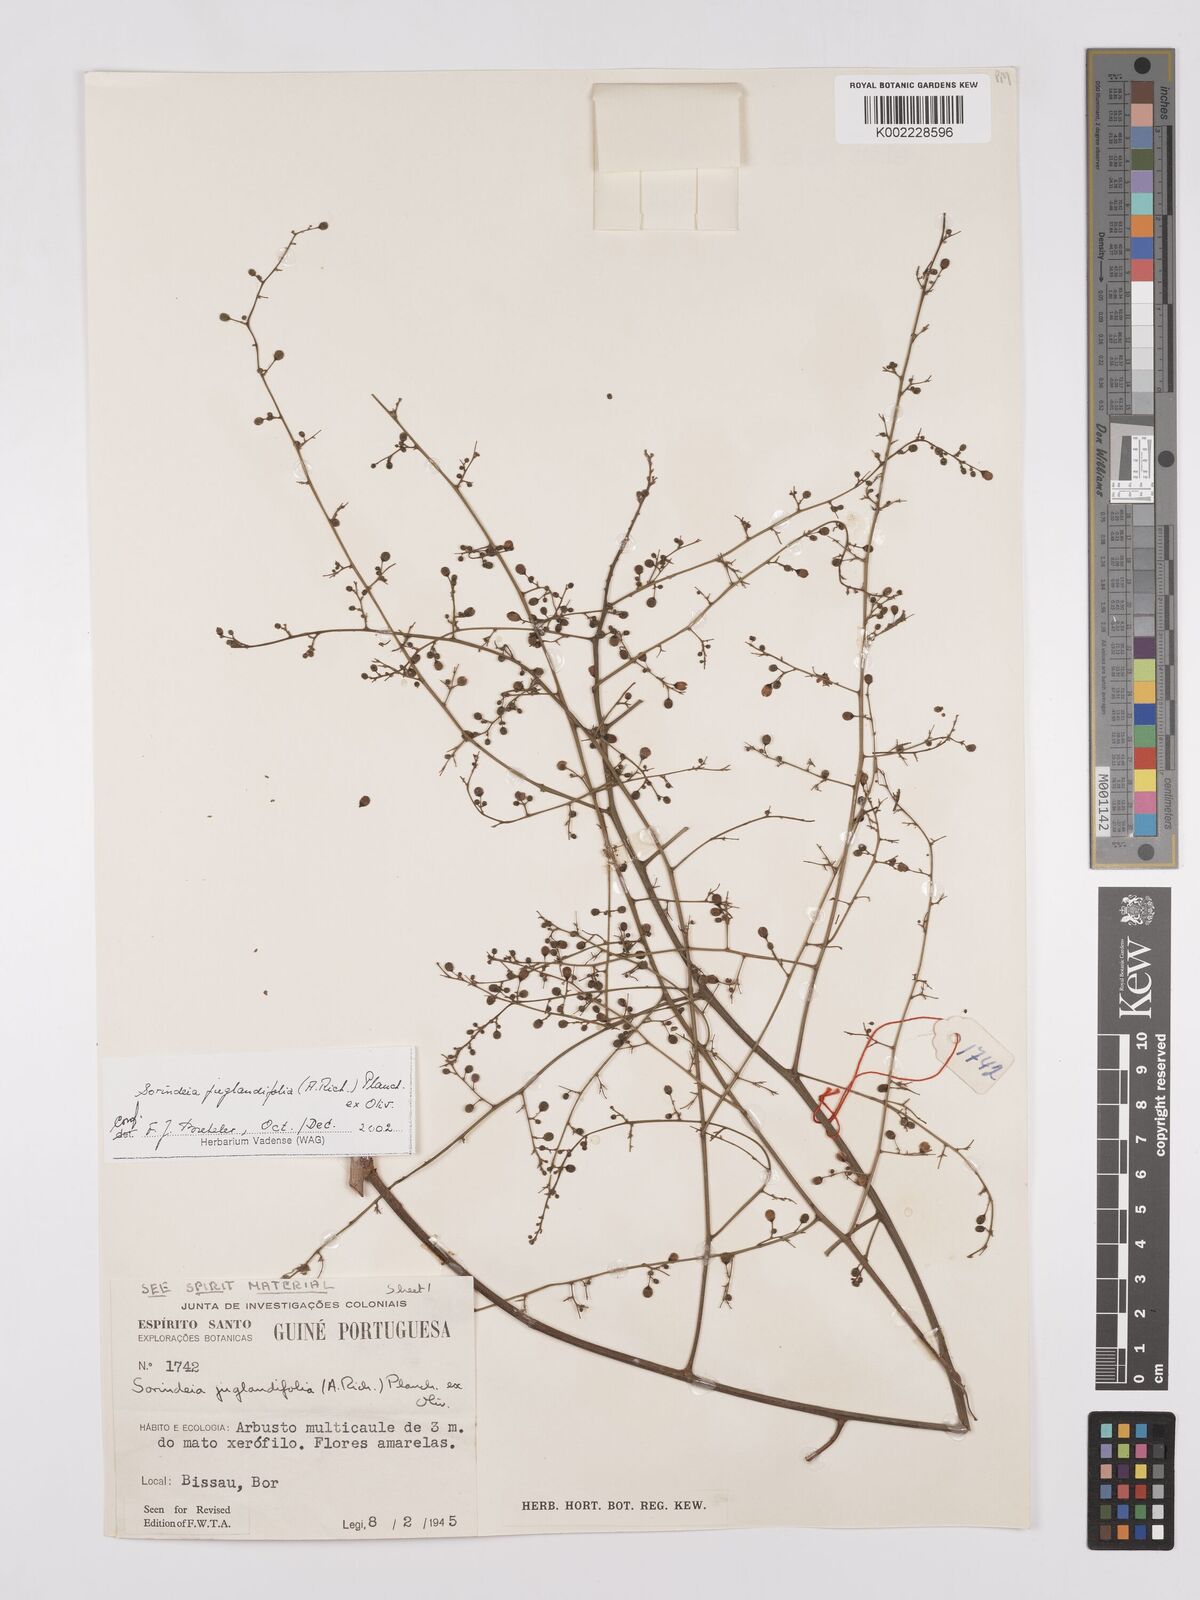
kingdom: Plantae
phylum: Tracheophyta
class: Magnoliopsida
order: Sapindales
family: Anacardiaceae
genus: Sorindeia
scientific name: Sorindeia juglandifolia
